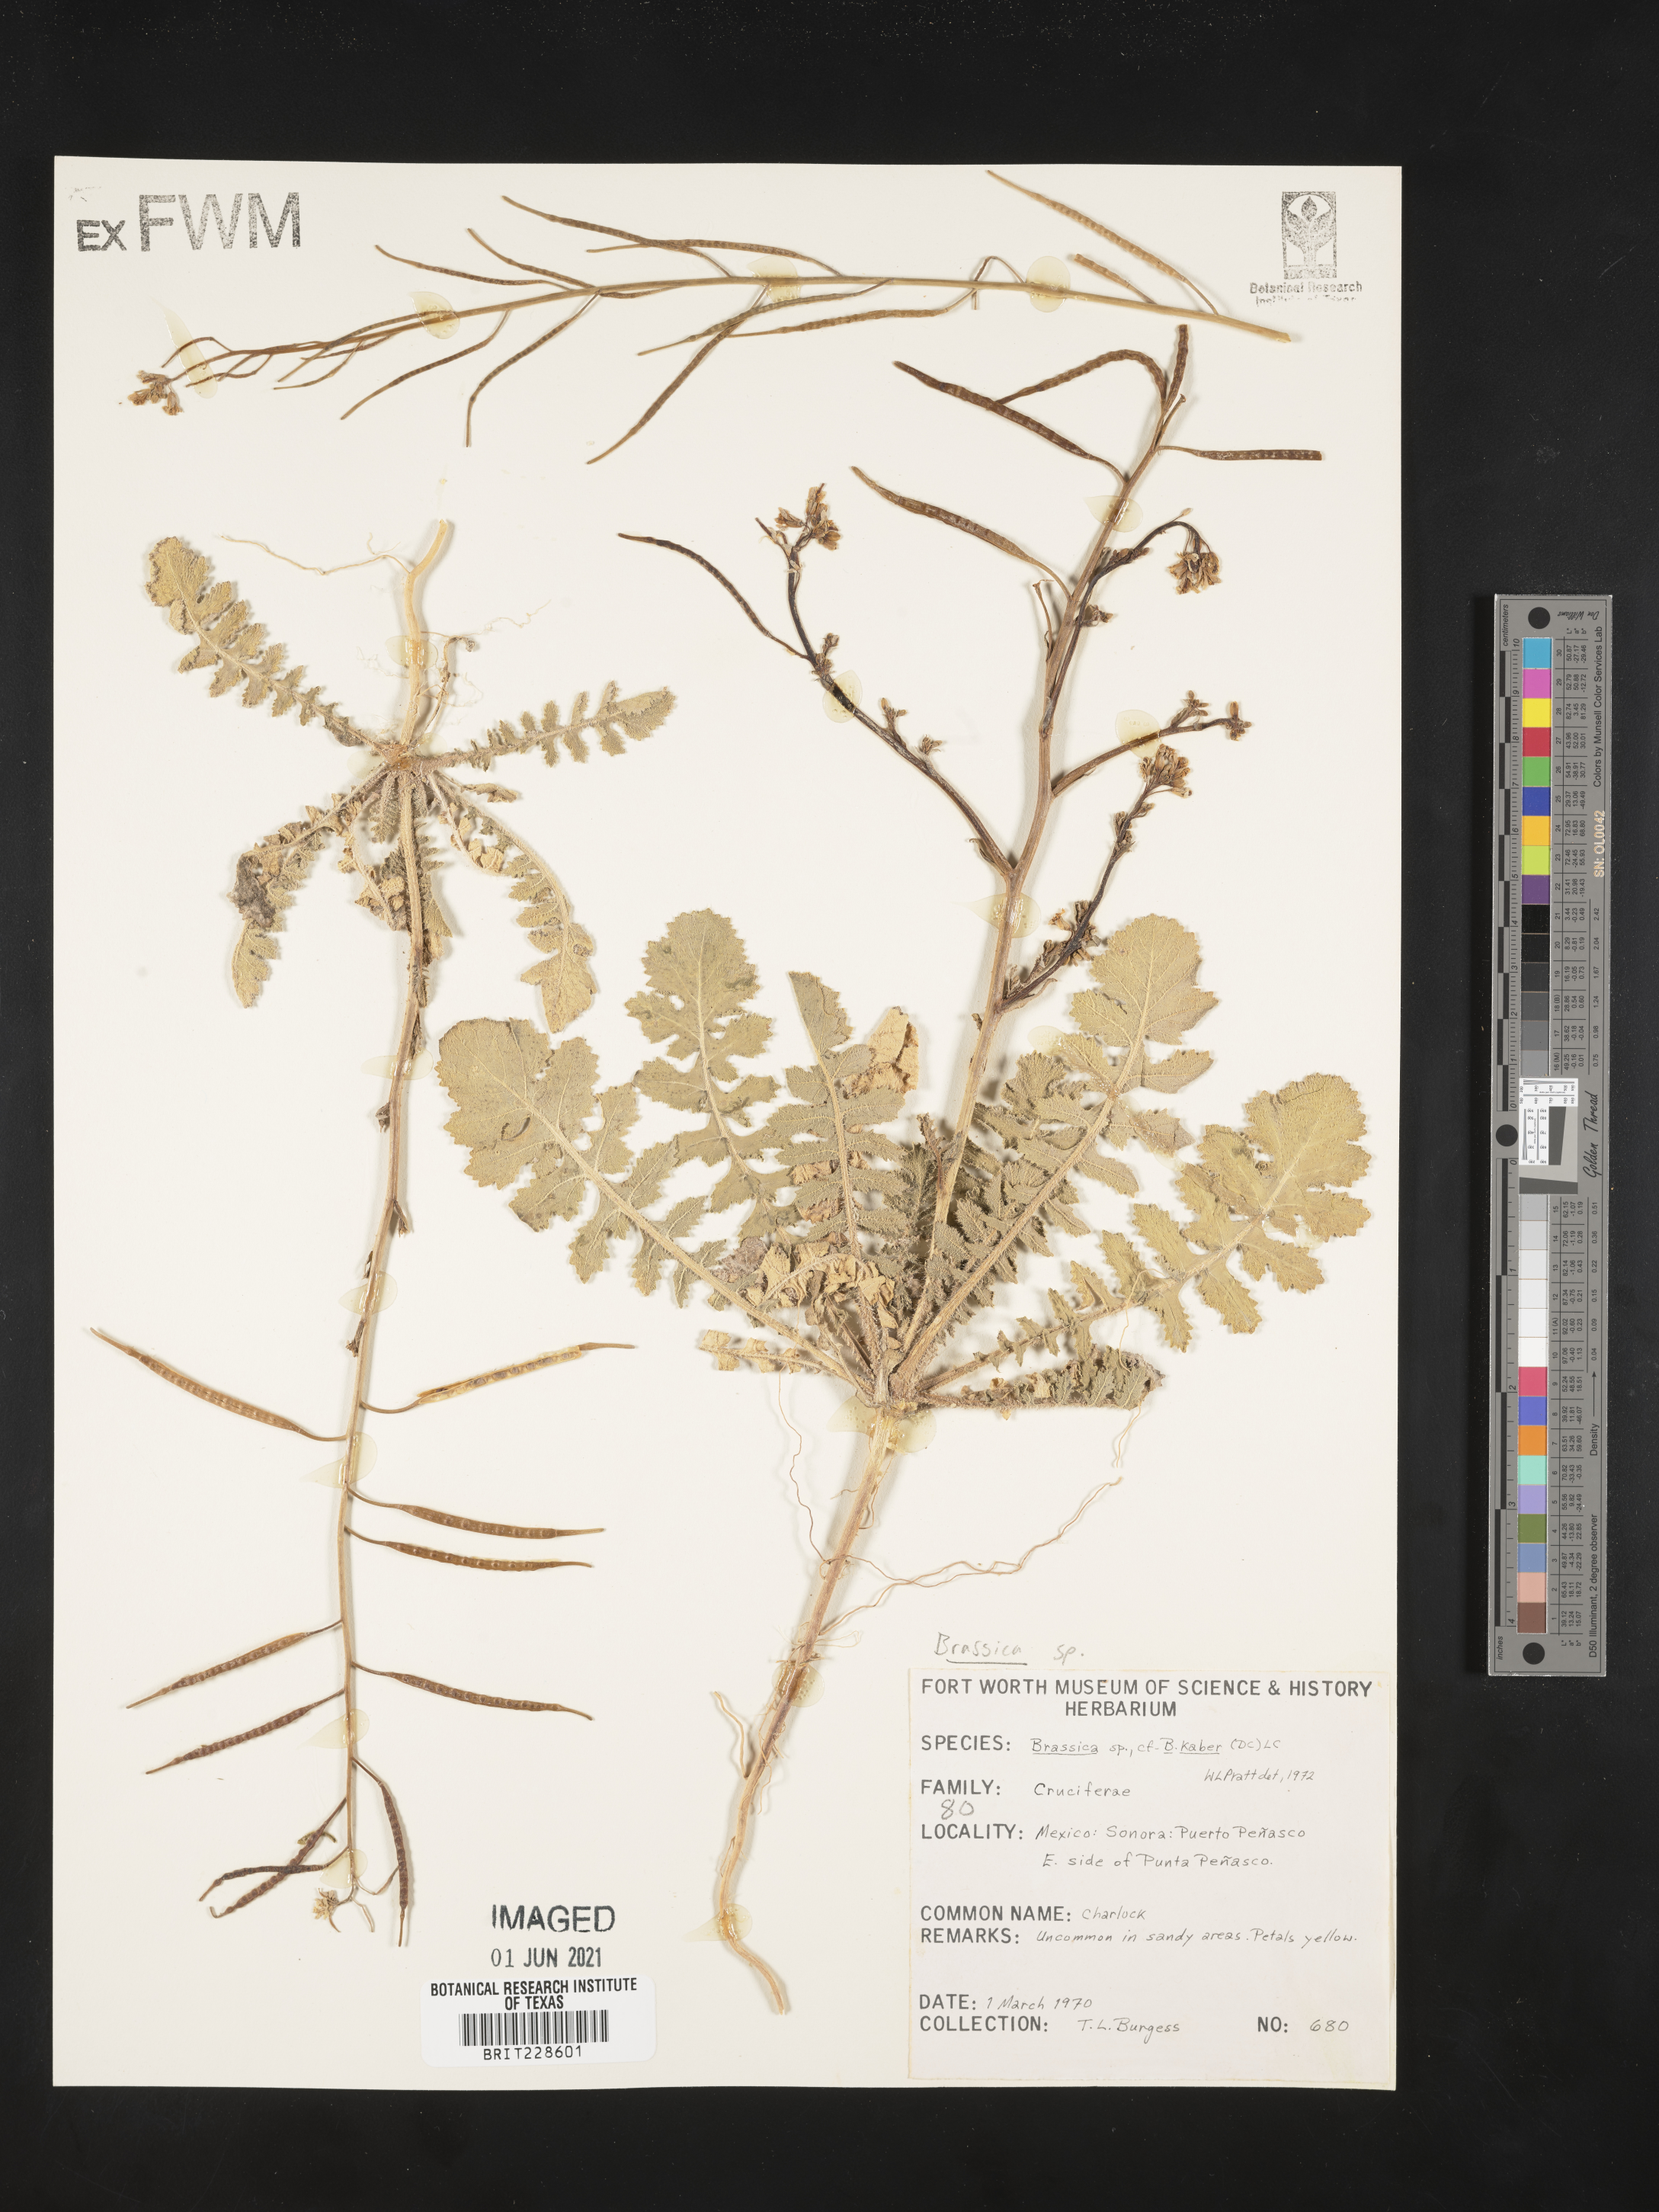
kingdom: Plantae
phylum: Tracheophyta
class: Magnoliopsida
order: Brassicales
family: Brassicaceae
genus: Sinapis
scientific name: Sinapis arvensis
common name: Charlock
